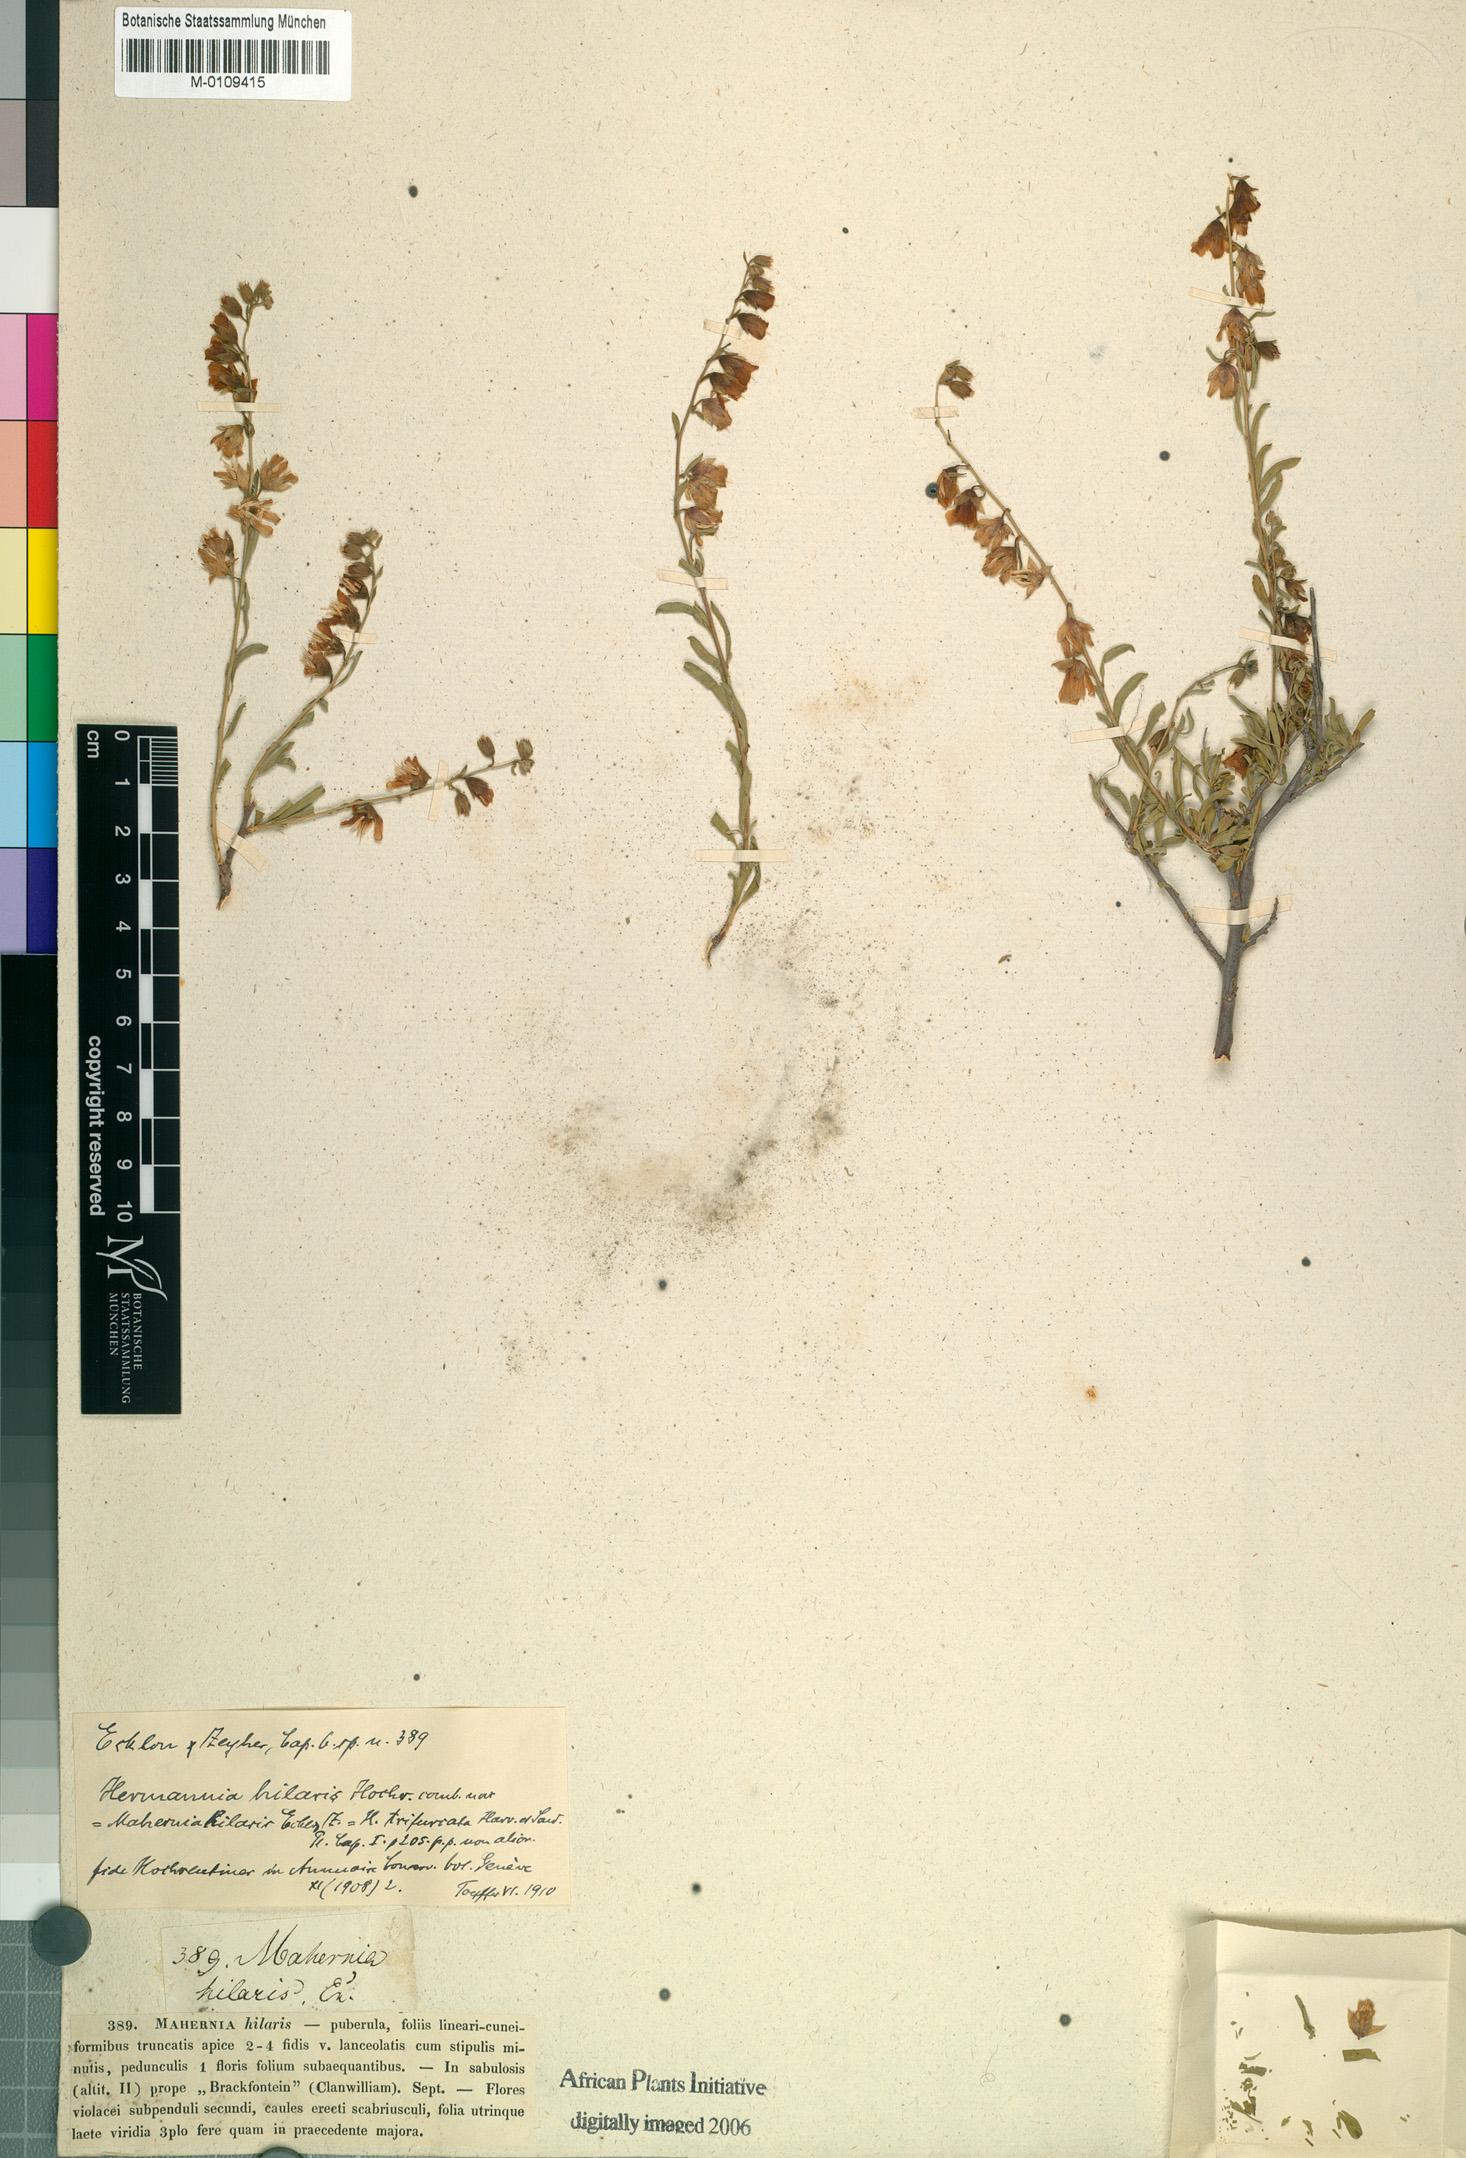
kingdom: Plantae
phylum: Tracheophyta
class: Magnoliopsida
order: Malvales
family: Malvaceae
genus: Hermannia
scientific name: Hermannia trifurca
